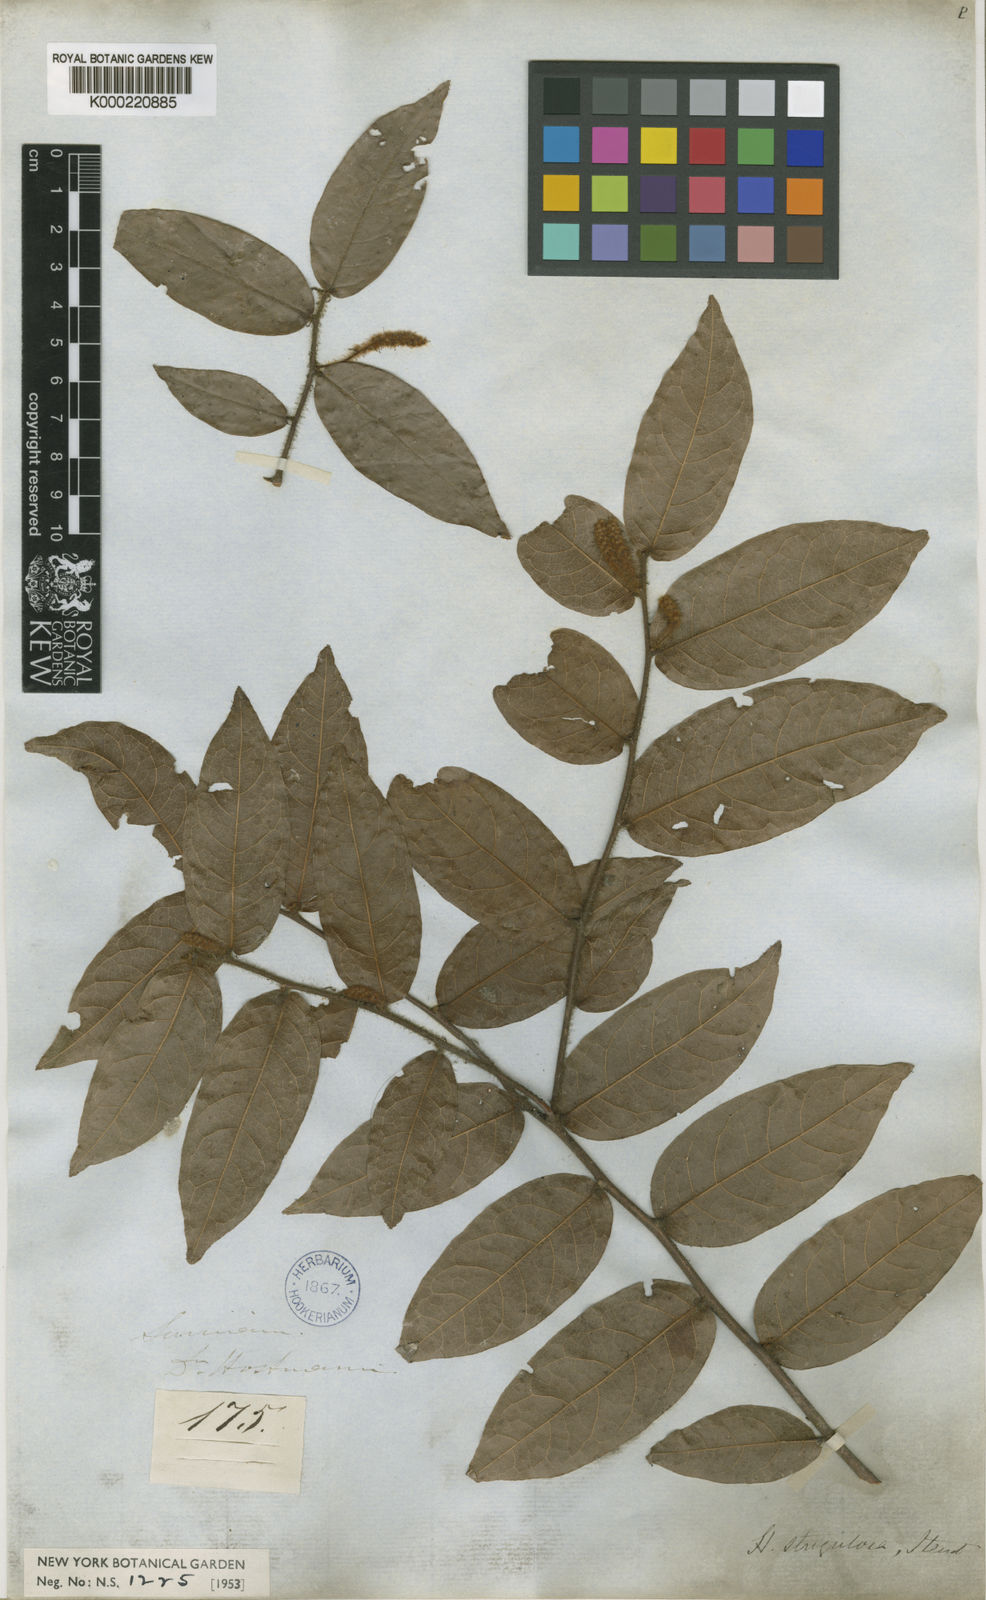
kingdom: Plantae
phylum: Tracheophyta
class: Magnoliopsida
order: Malpighiales
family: Chrysobalanaceae
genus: Hirtella
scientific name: Hirtella racemosa
